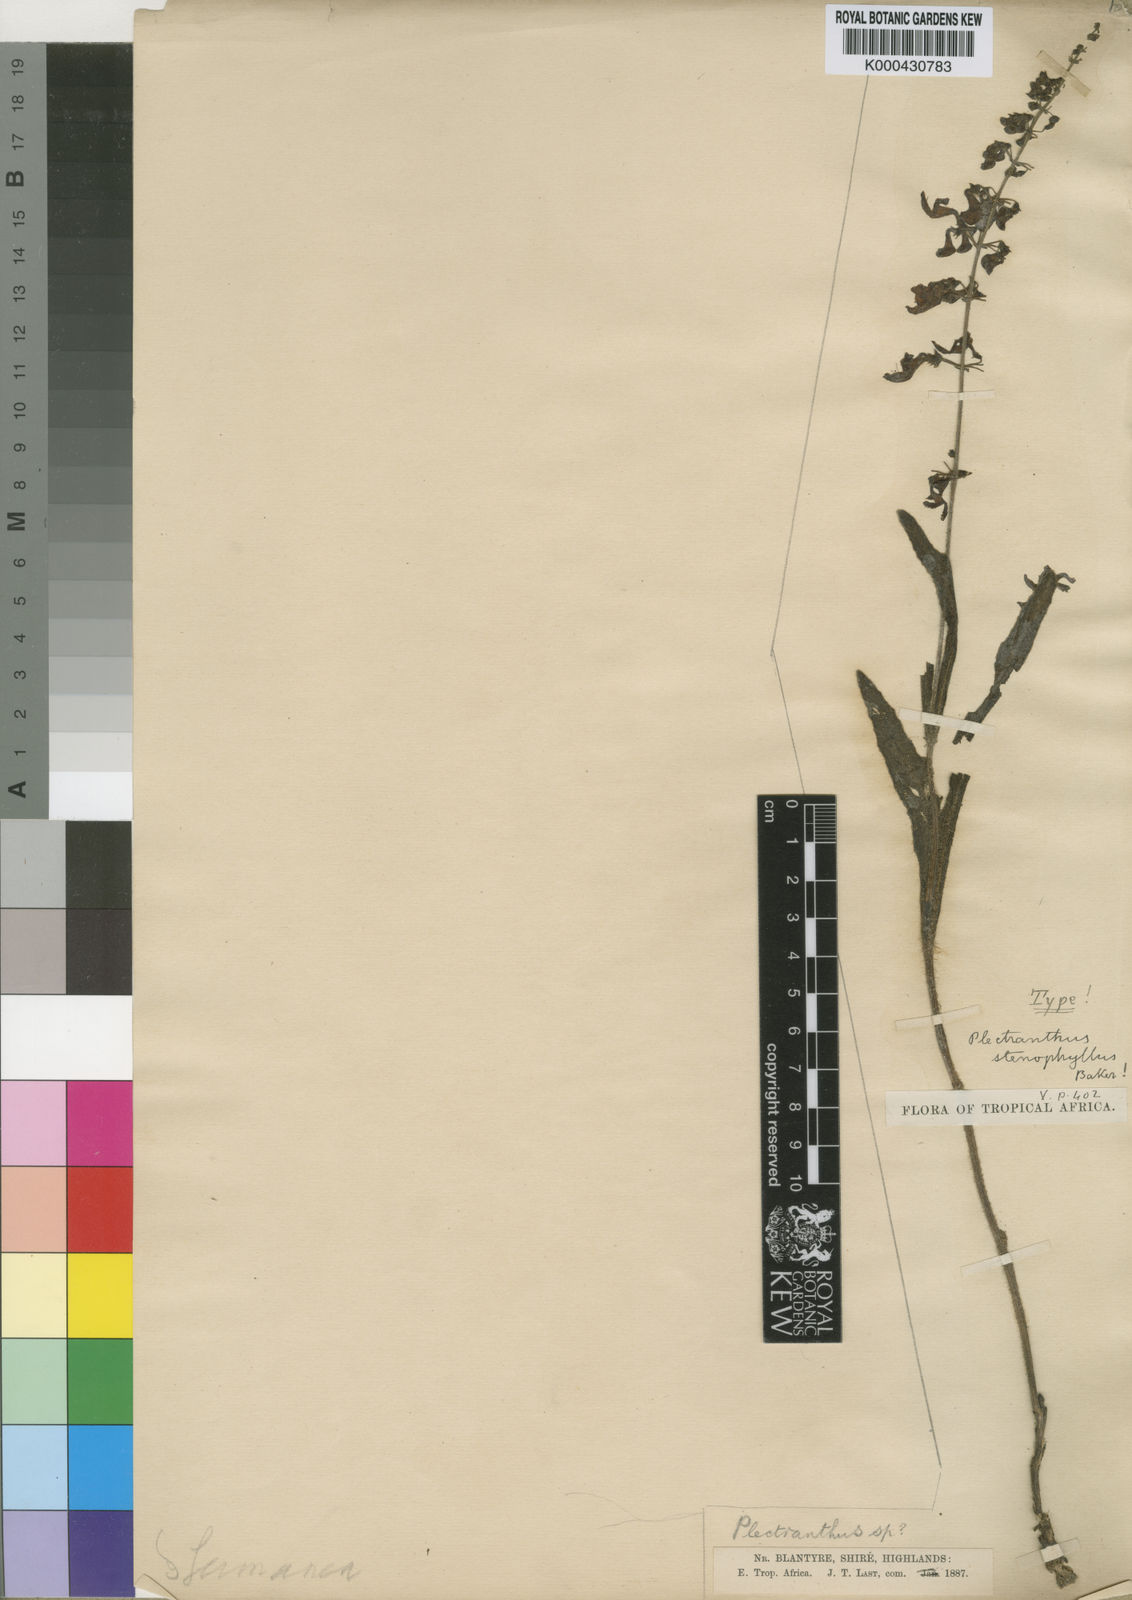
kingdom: Plantae
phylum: Tracheophyta
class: Magnoliopsida
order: Lamiales
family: Lamiaceae
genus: Equilabium
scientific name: Equilabium stenophyllum
